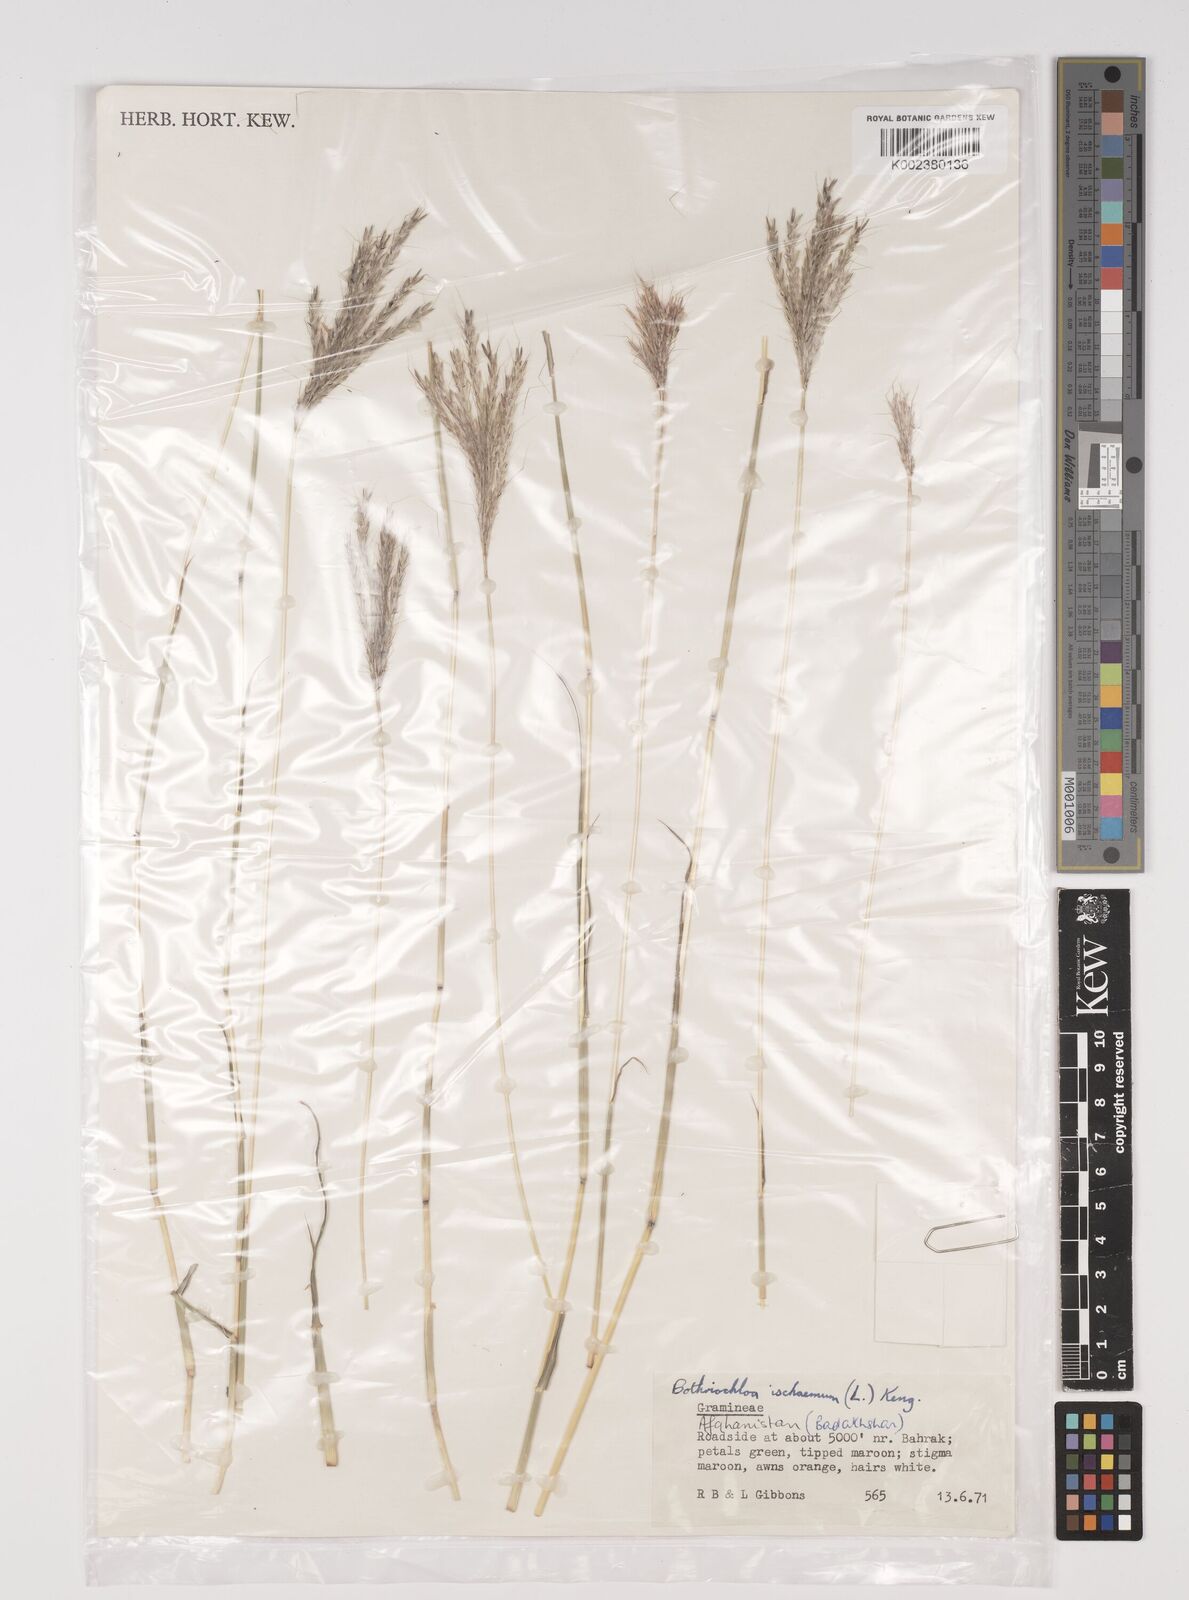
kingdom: Plantae
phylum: Tracheophyta
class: Liliopsida
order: Poales
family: Poaceae
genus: Bothriochloa
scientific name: Bothriochloa ischaemum
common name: Yellow bluestem
